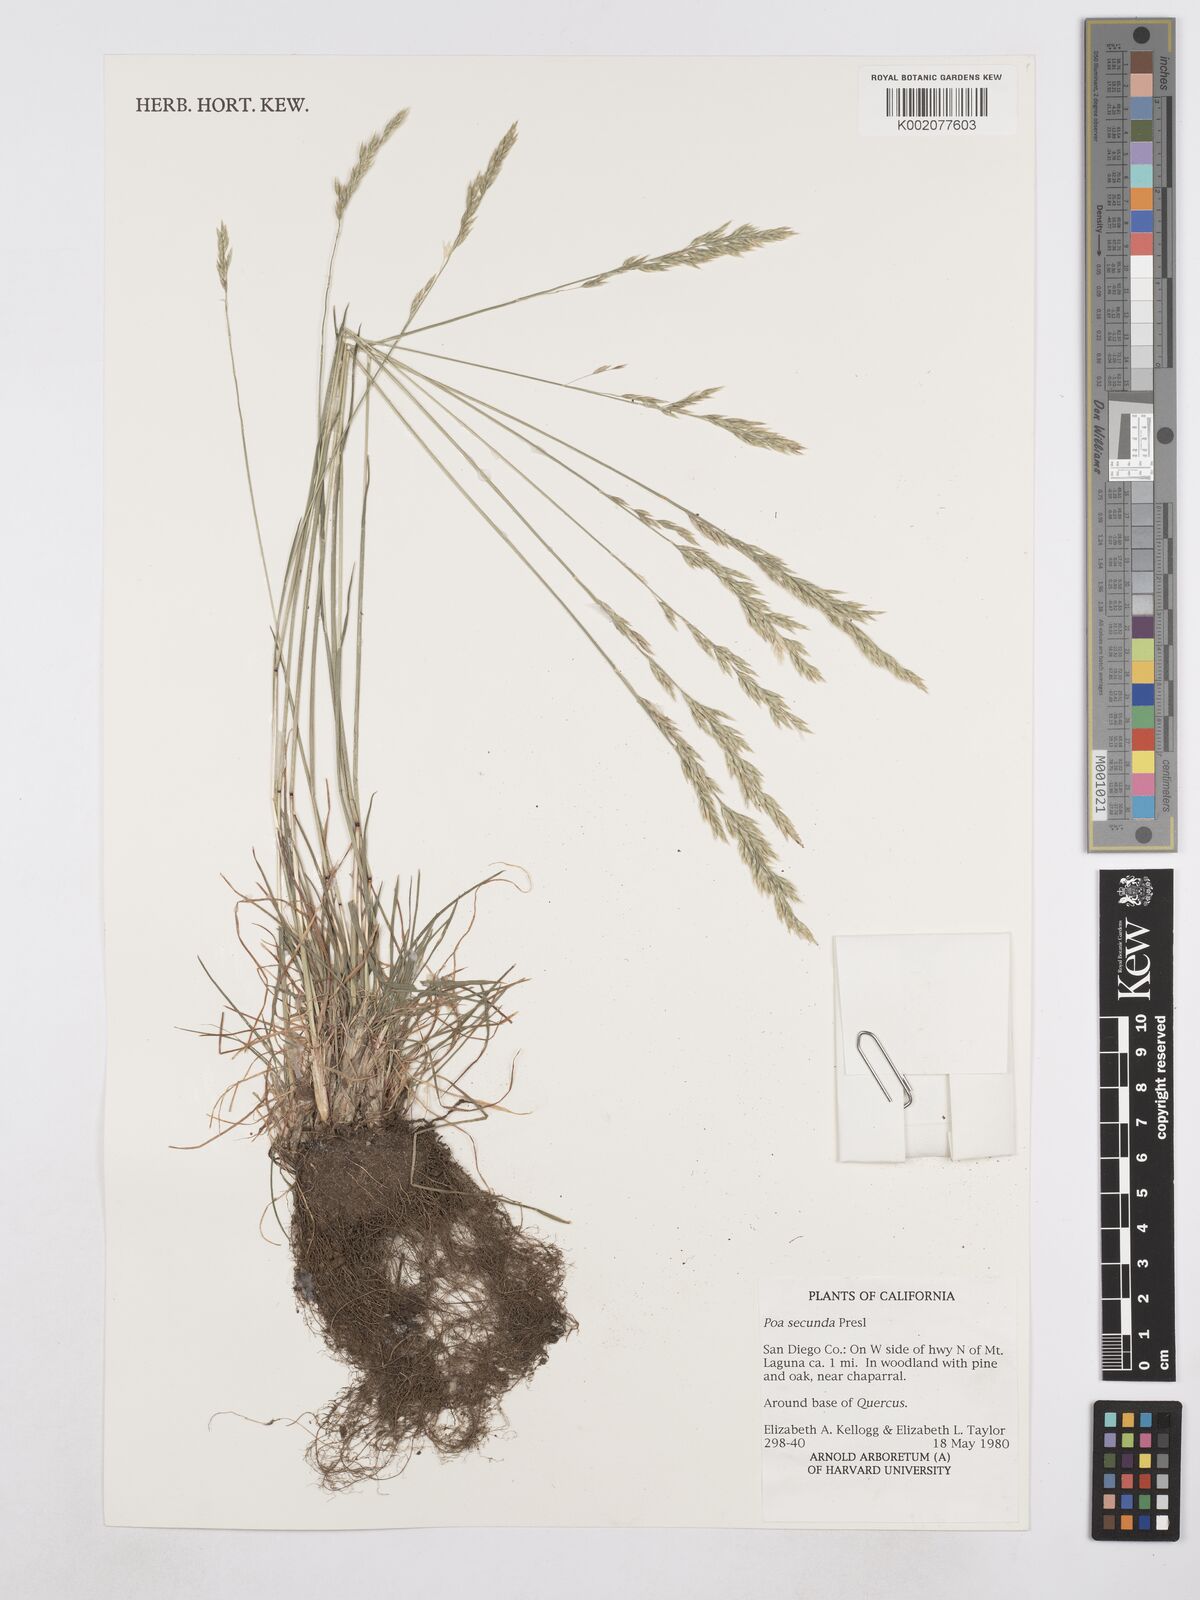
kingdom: Plantae
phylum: Tracheophyta
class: Liliopsida
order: Poales
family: Poaceae
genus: Poa
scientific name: Poa secunda
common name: Sandberg bluegrass
